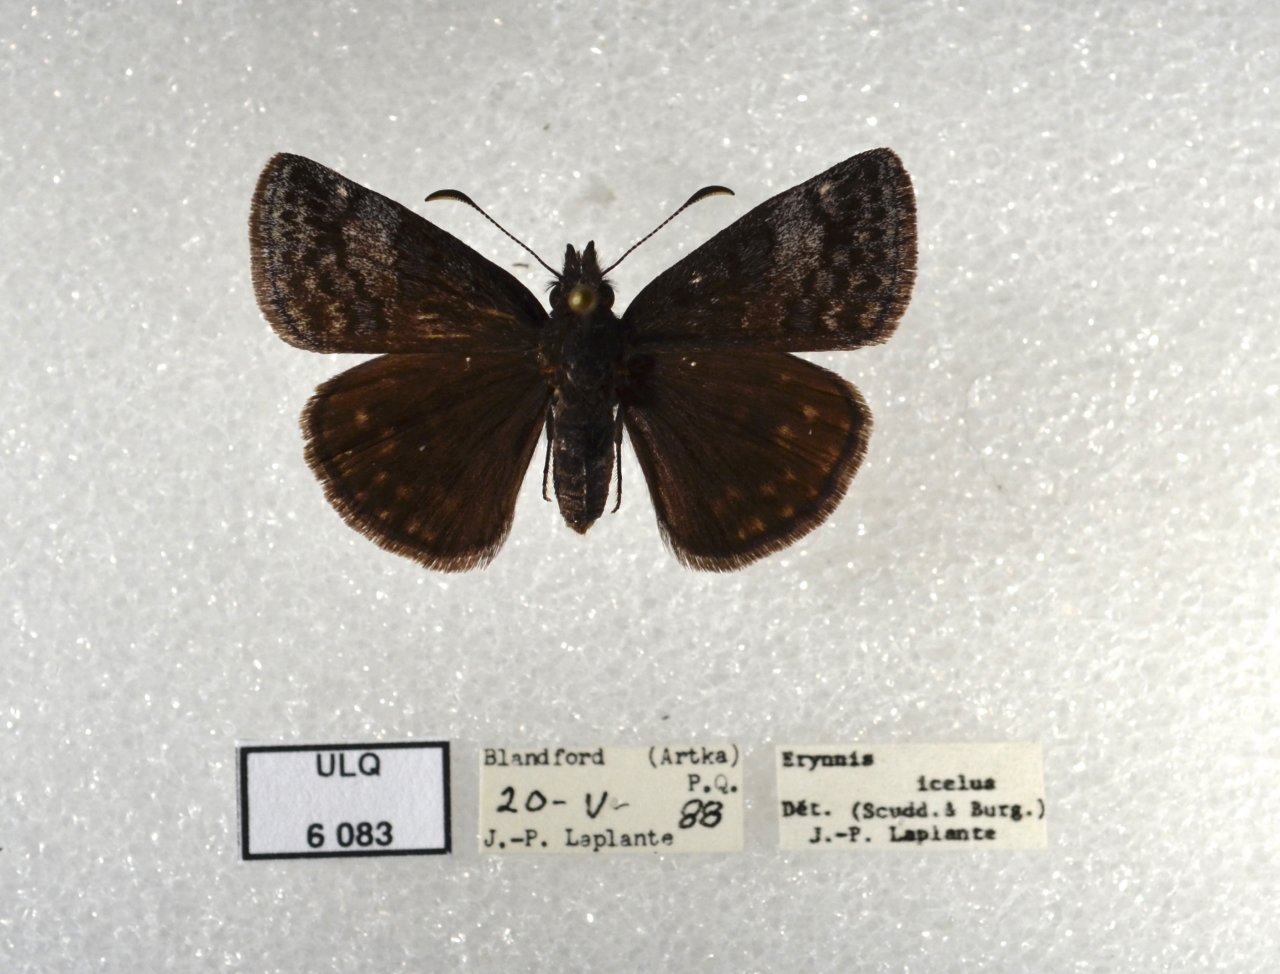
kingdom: Animalia
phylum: Arthropoda
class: Insecta
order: Lepidoptera
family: Hesperiidae
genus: Erynnis
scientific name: Erynnis icelus
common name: Dreamy Duskywing
